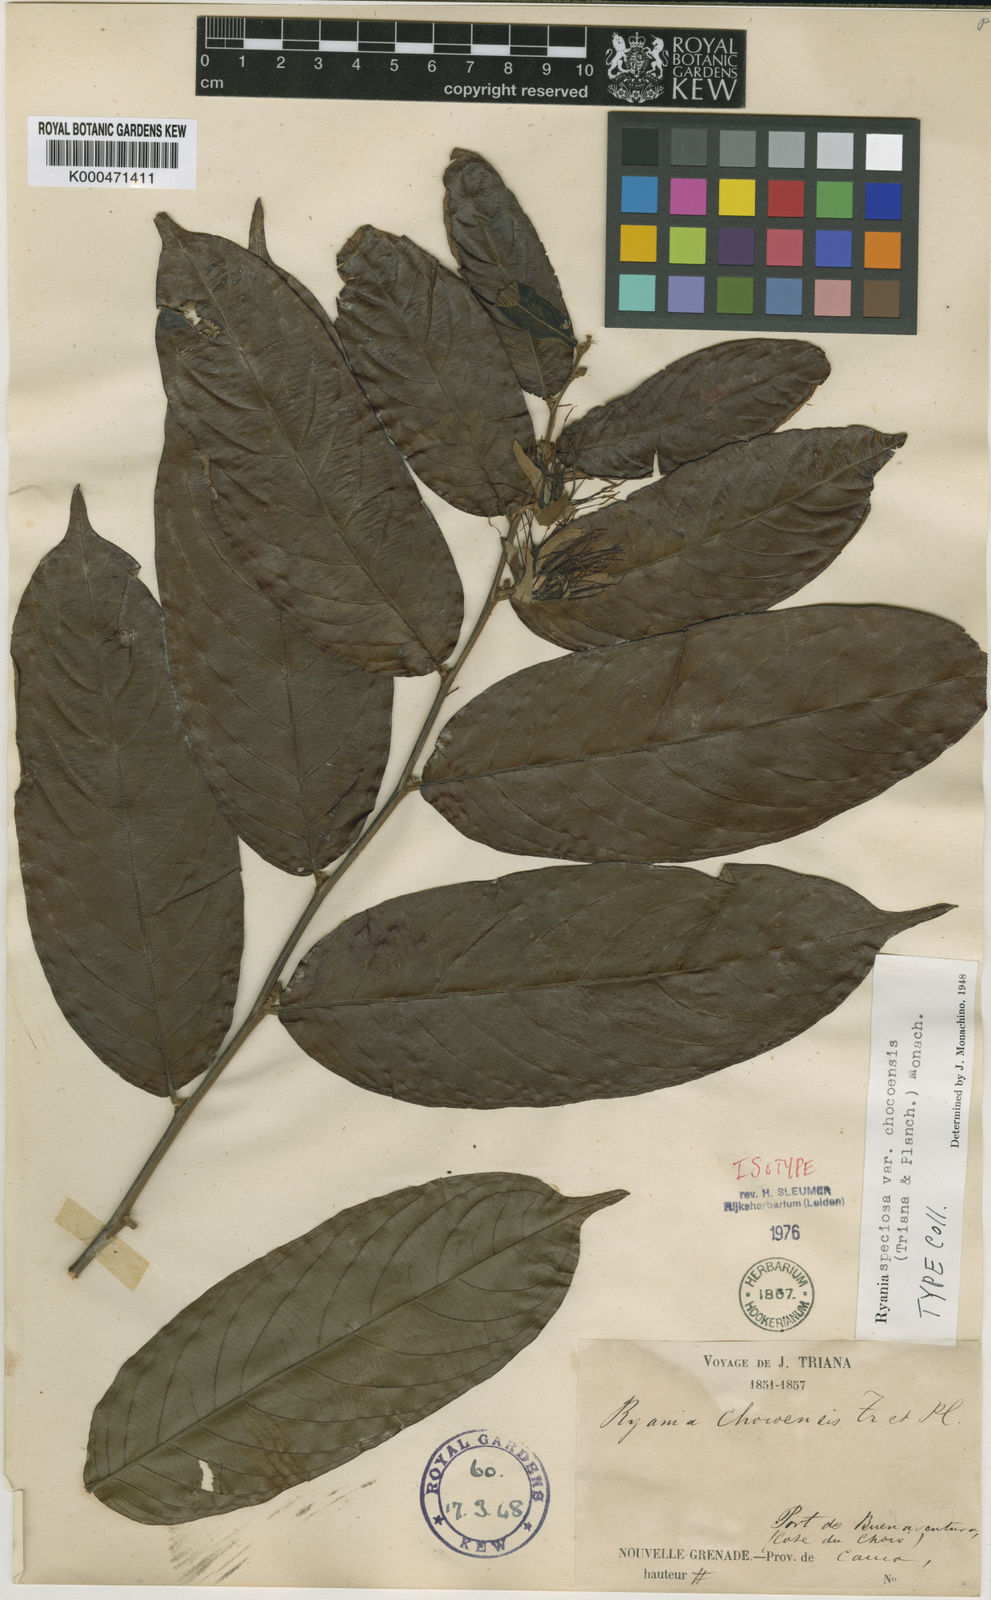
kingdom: Plantae
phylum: Tracheophyta
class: Magnoliopsida
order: Malpighiales
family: Salicaceae
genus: Ryania
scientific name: Ryania speciosa
